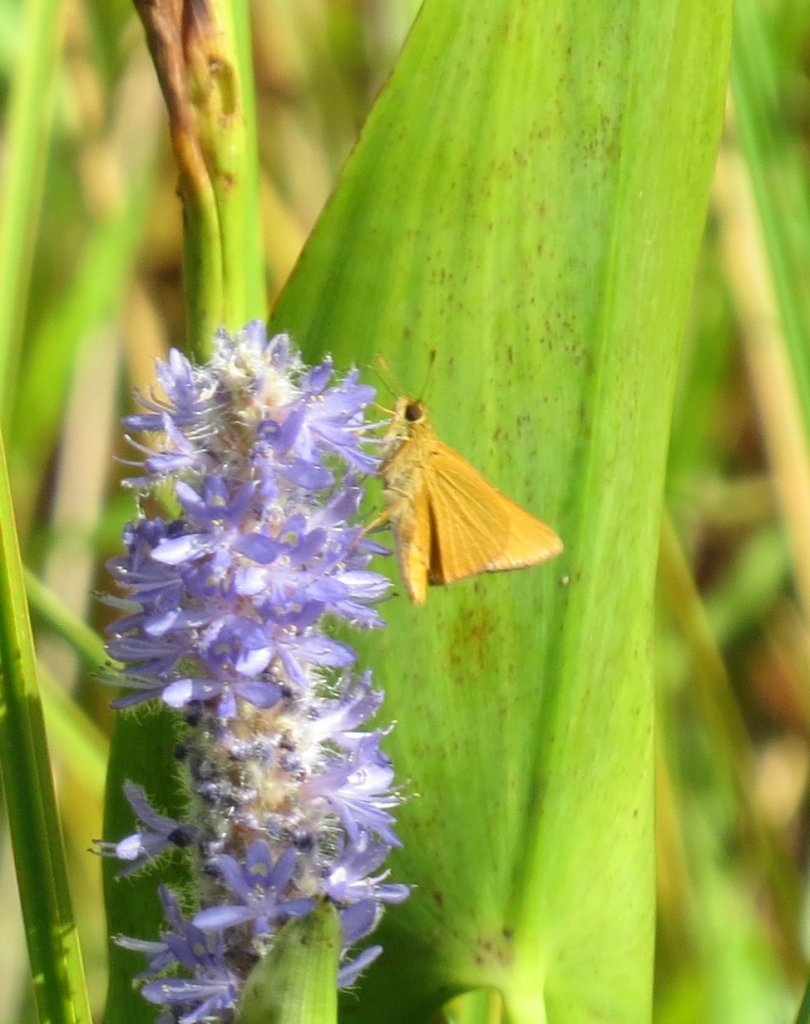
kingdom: Animalia
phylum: Arthropoda
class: Insecta
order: Lepidoptera
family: Hesperiidae
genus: Problema
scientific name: Problema bulenta
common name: Rare Skipper
